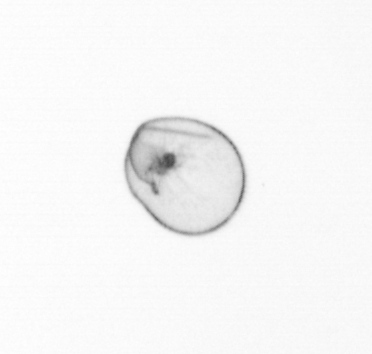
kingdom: Chromista
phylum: Myzozoa
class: Dinophyceae
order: Noctilucales
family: Noctilucaceae
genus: Noctiluca
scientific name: Noctiluca scintillans
